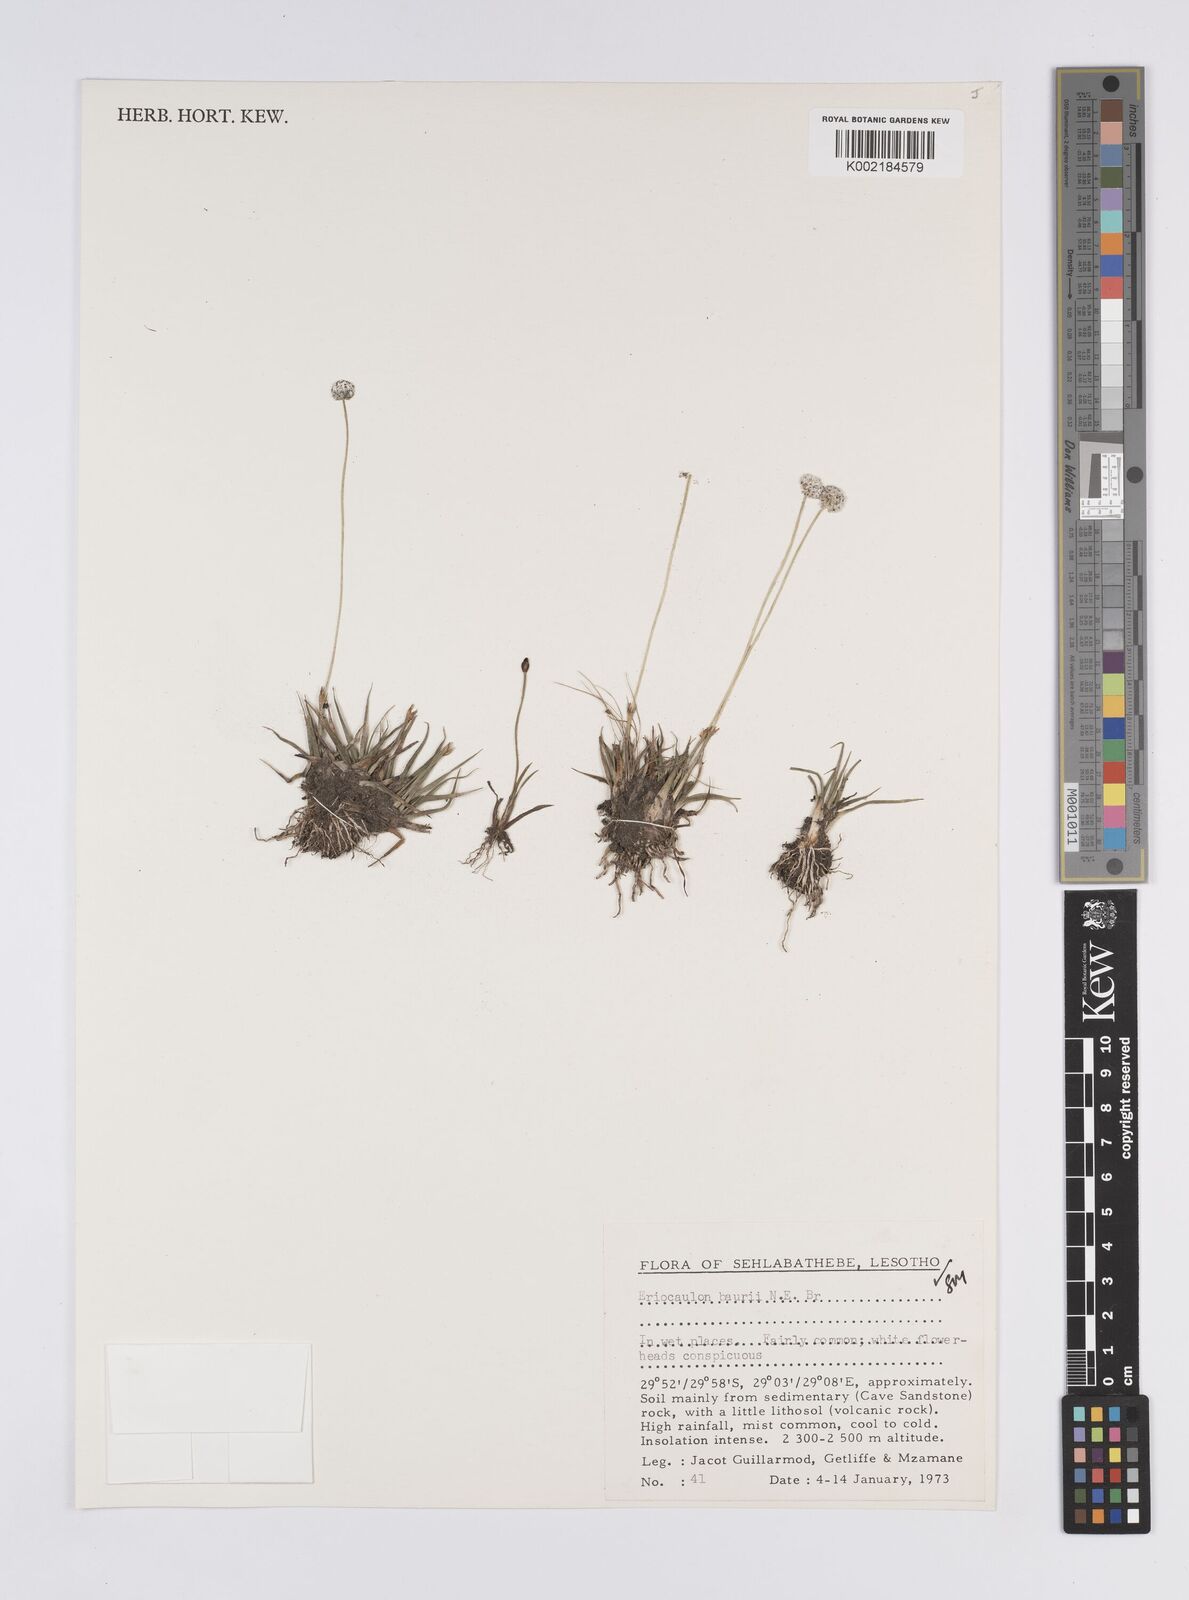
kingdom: Plantae
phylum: Tracheophyta
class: Liliopsida
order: Poales
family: Eriocaulaceae
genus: Eriocaulon
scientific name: Eriocaulon sonderianum
